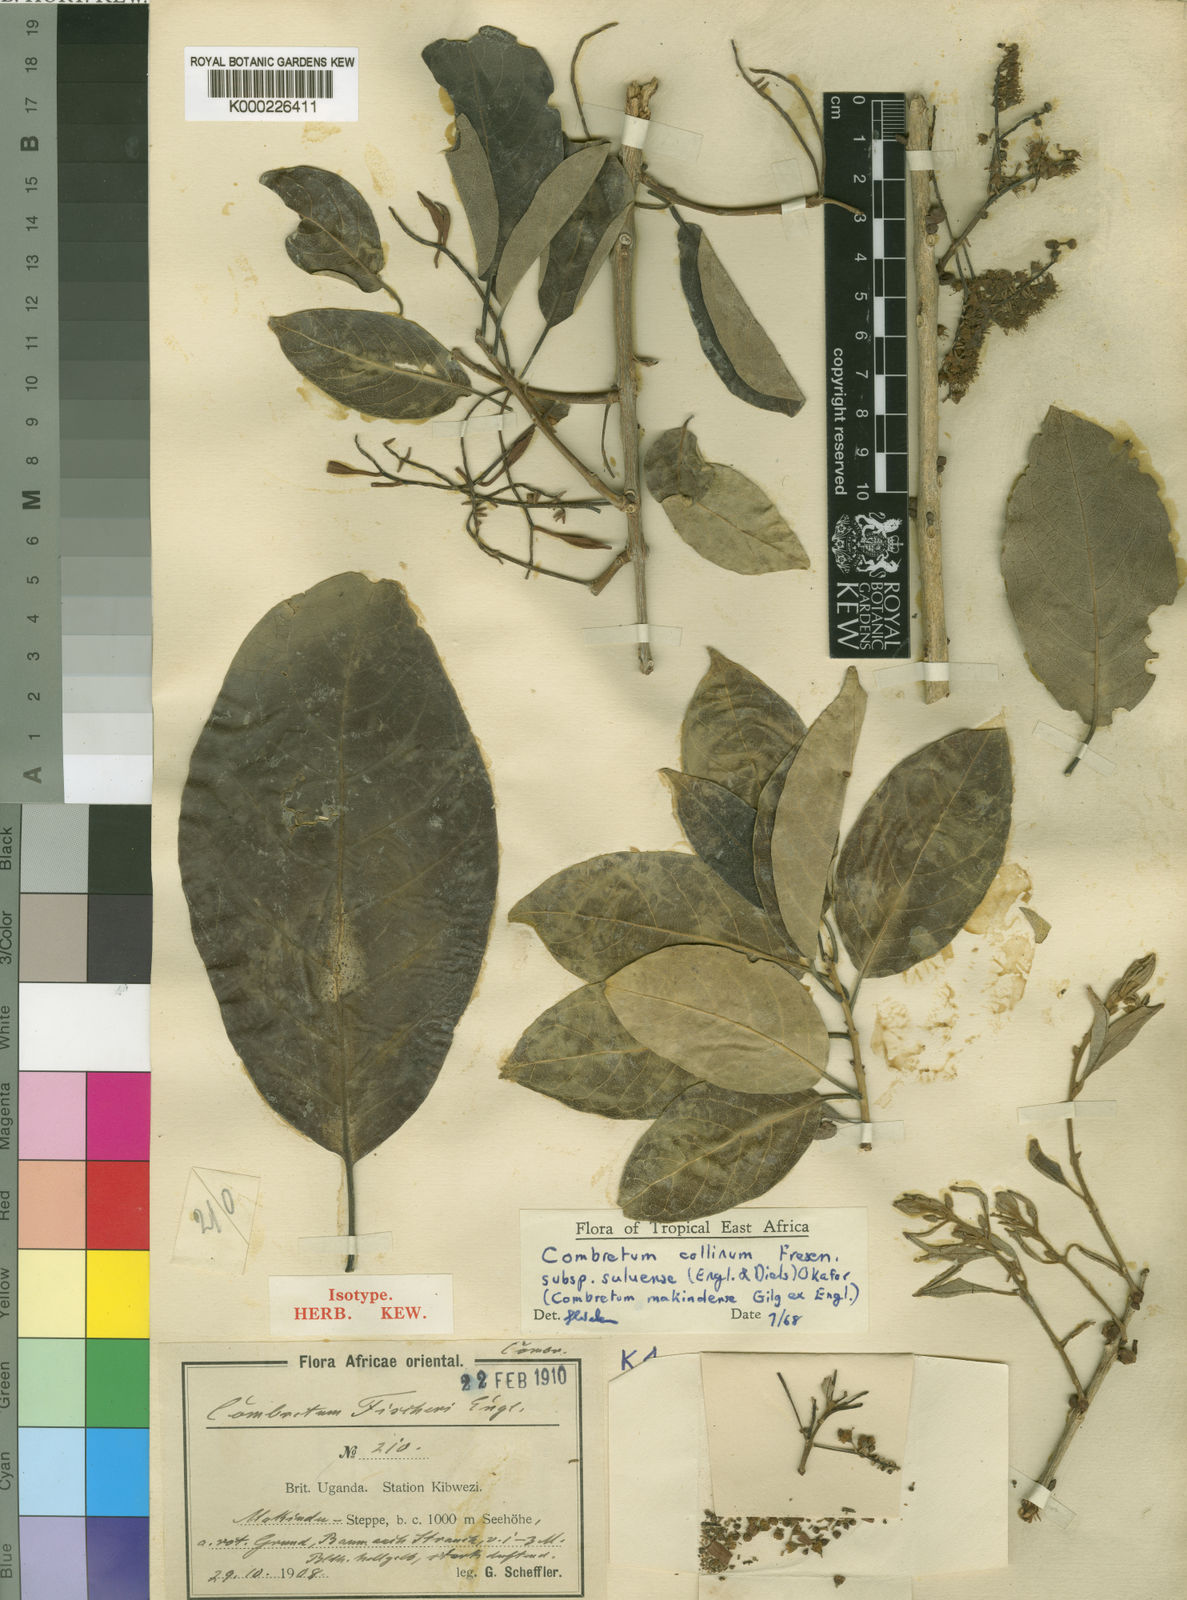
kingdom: Plantae
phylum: Tracheophyta
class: Magnoliopsida
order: Myrtales
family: Combretaceae
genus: Combretum
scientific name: Combretum collinum
